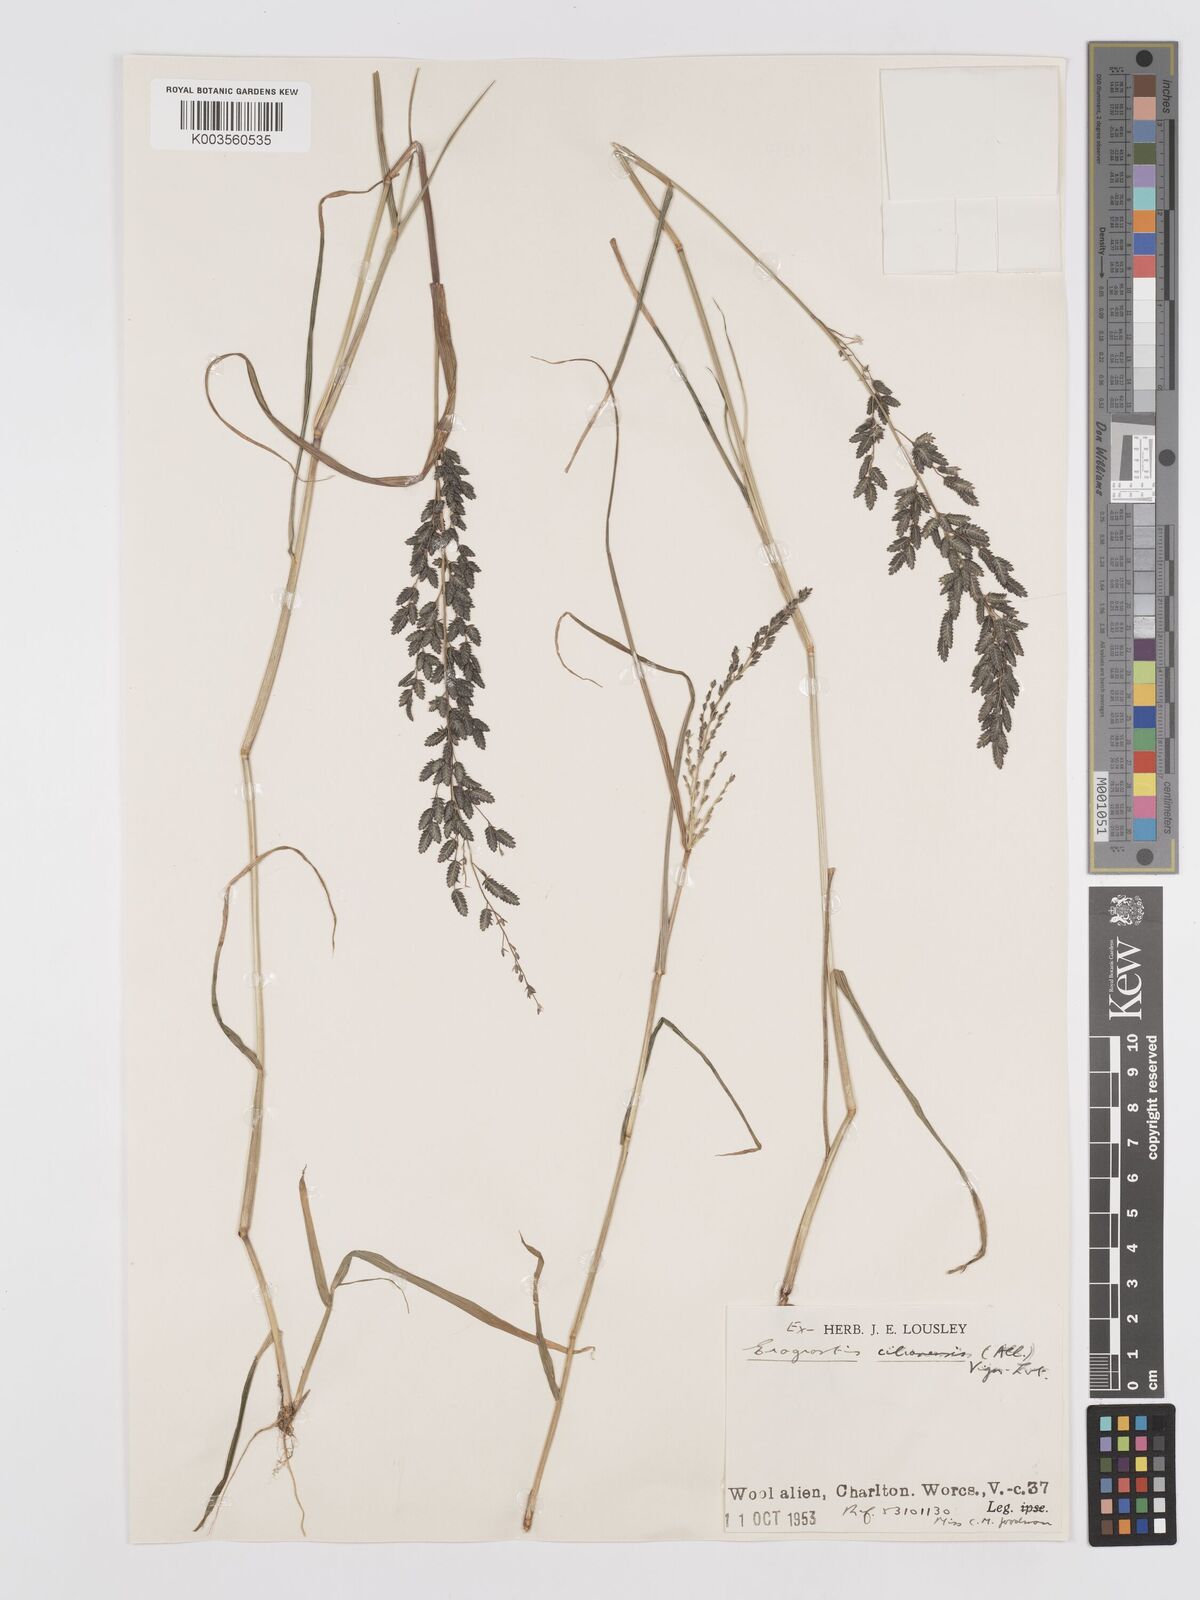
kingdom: Plantae
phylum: Tracheophyta
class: Liliopsida
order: Poales
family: Poaceae
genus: Eragrostis
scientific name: Eragrostis cilianensis
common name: Stinkgrass
